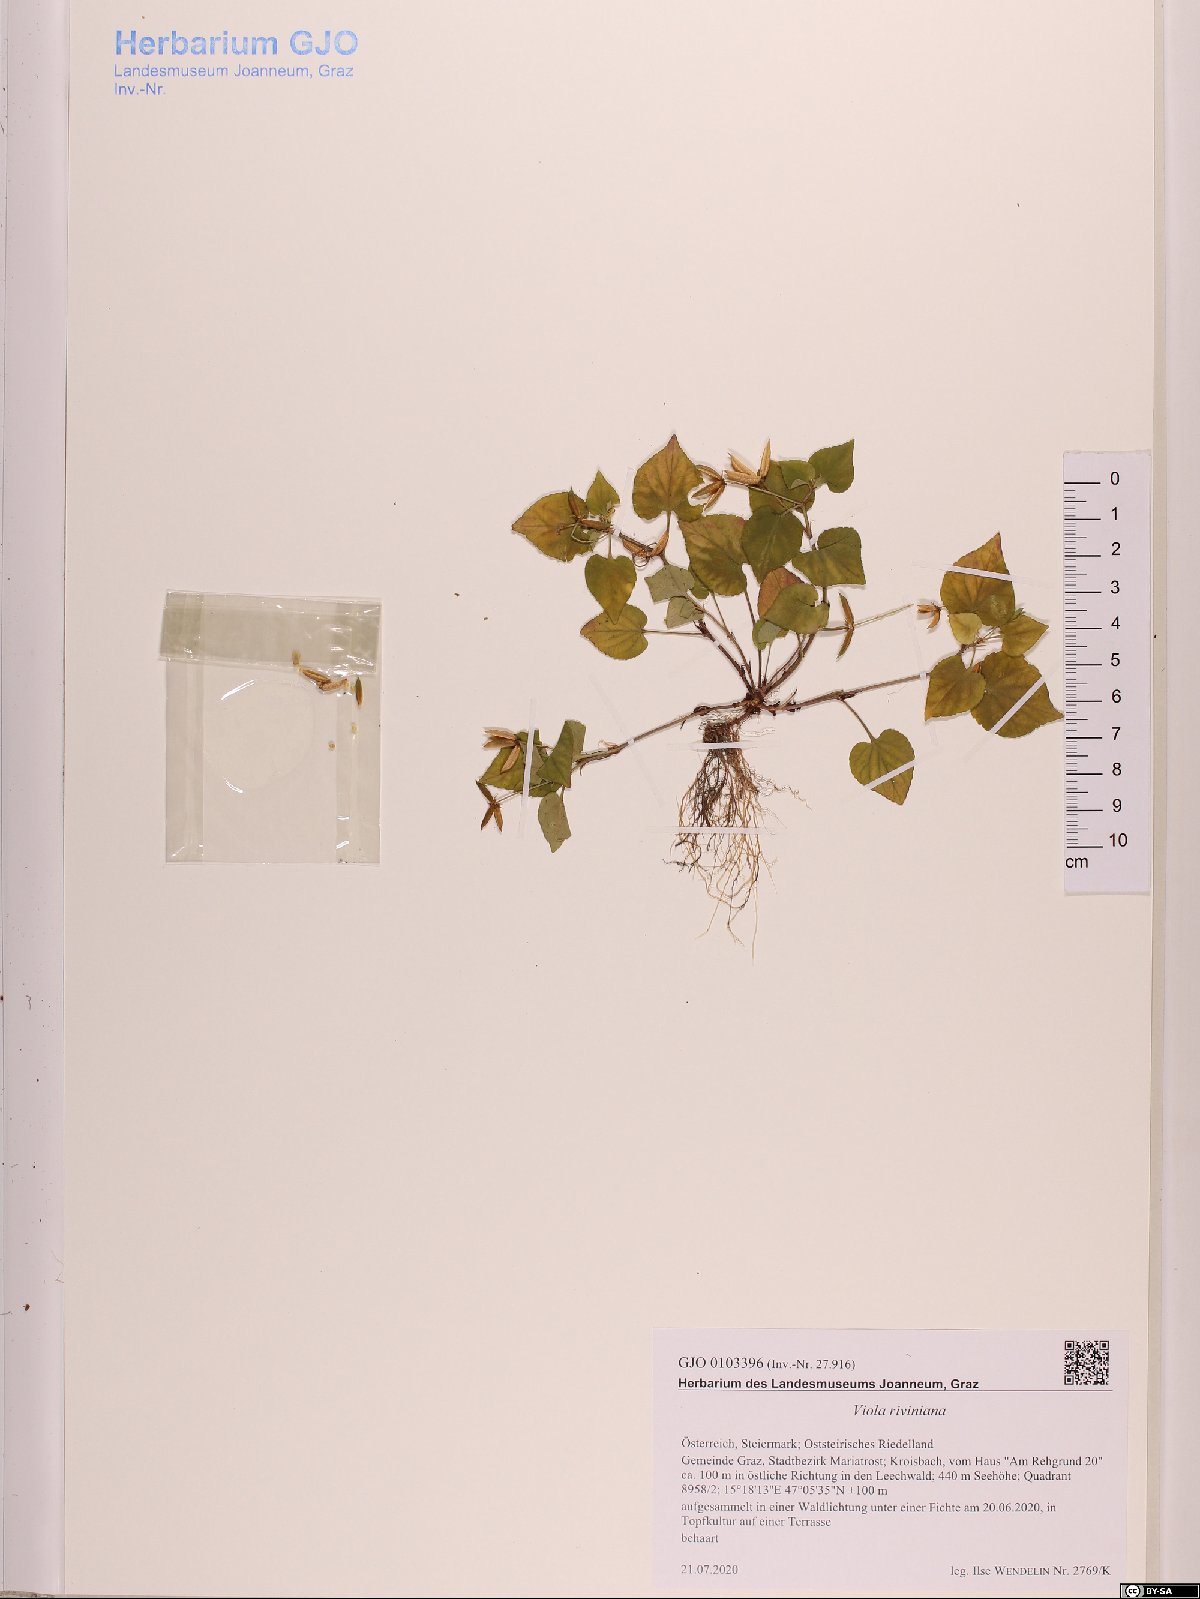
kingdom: Plantae
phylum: Tracheophyta
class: Magnoliopsida
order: Malpighiales
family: Violaceae
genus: Viola
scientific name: Viola riviniana
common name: Common dog-violet
